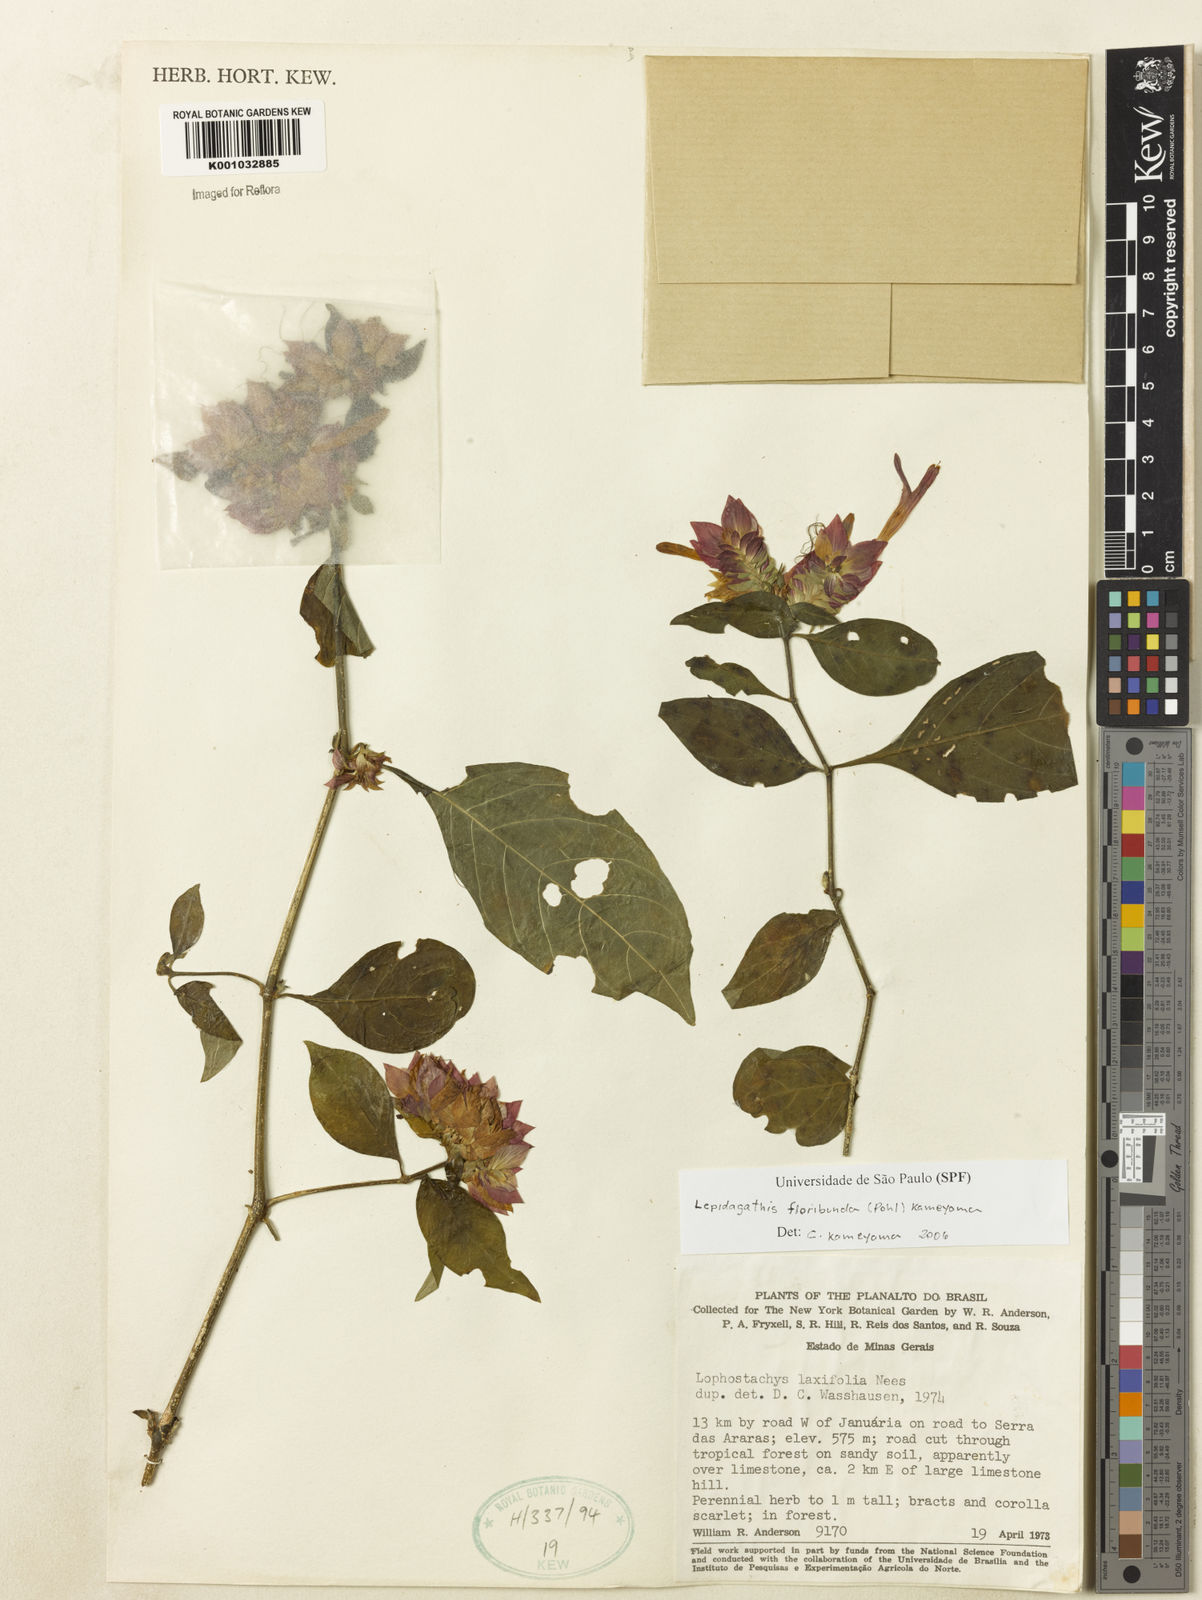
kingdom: Plantae
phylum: Tracheophyta
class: Magnoliopsida
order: Lamiales
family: Acanthaceae
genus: Lepidagathis
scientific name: Lepidagathis floribunda
